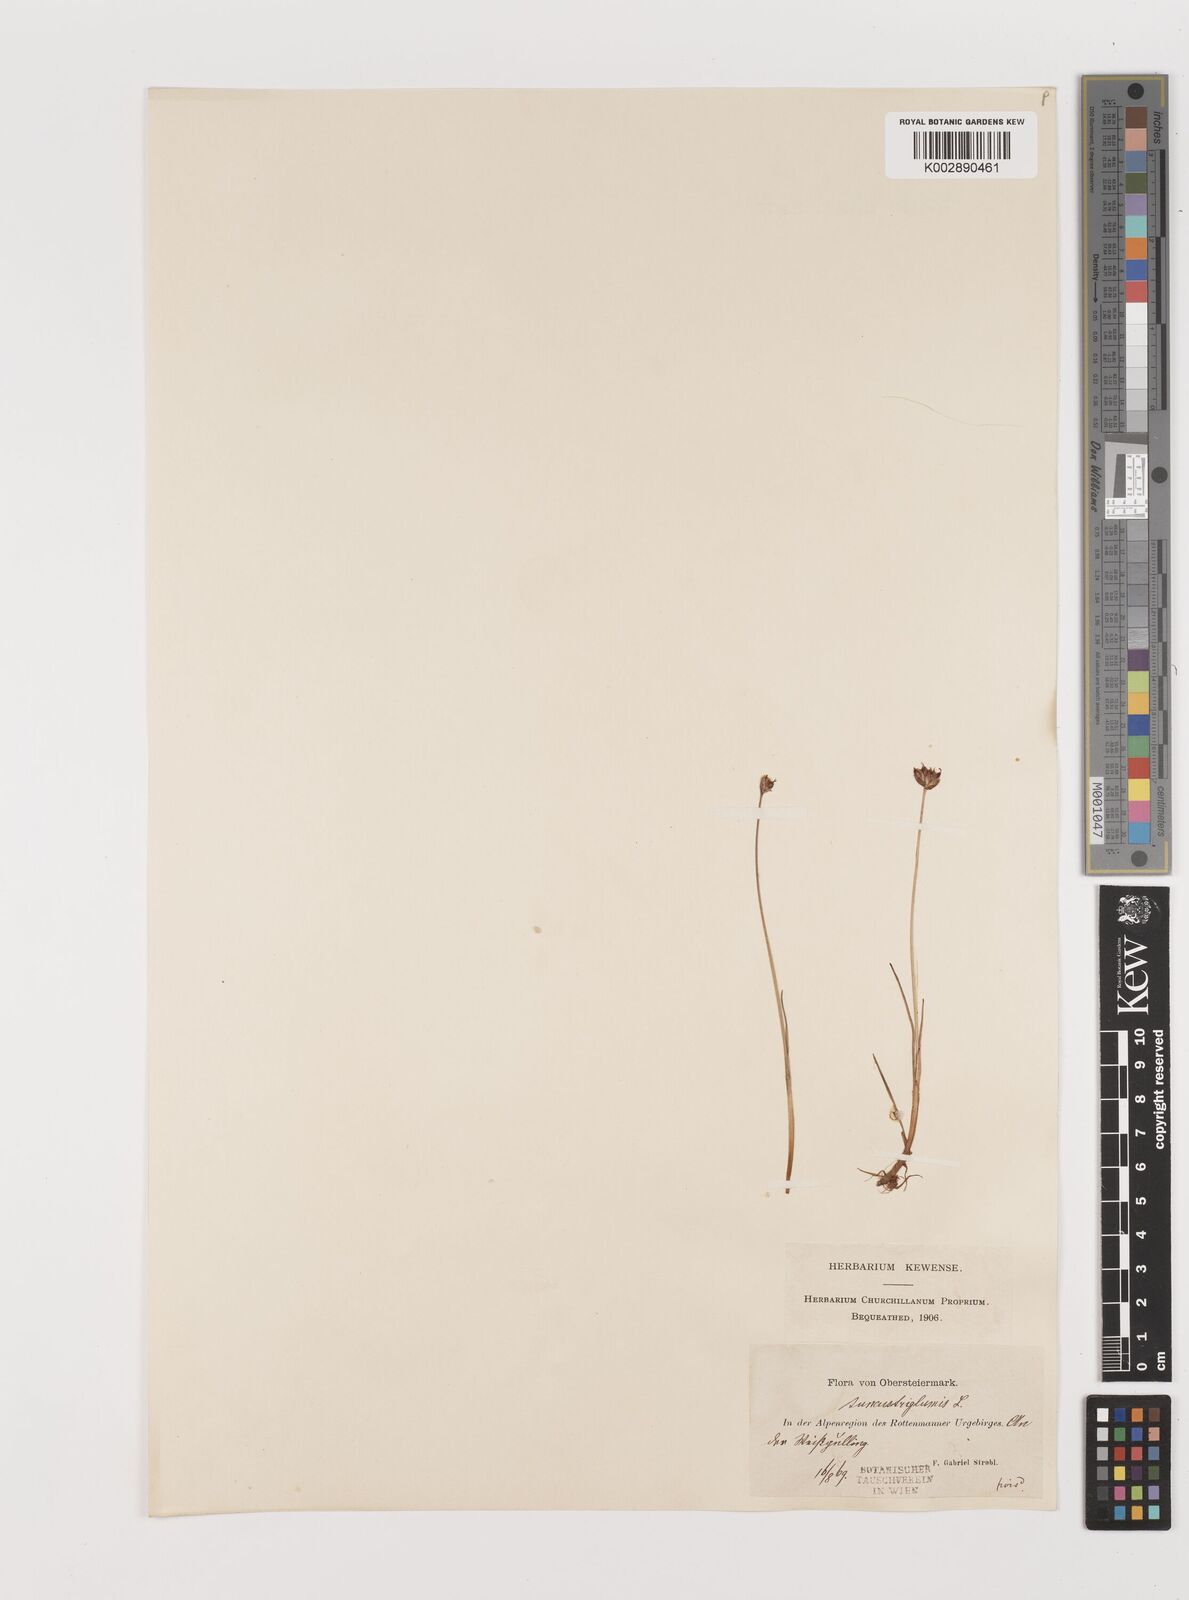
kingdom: Plantae
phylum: Tracheophyta
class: Liliopsida
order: Poales
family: Juncaceae
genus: Juncus
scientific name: Juncus triglumis
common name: Three-flowered rush
